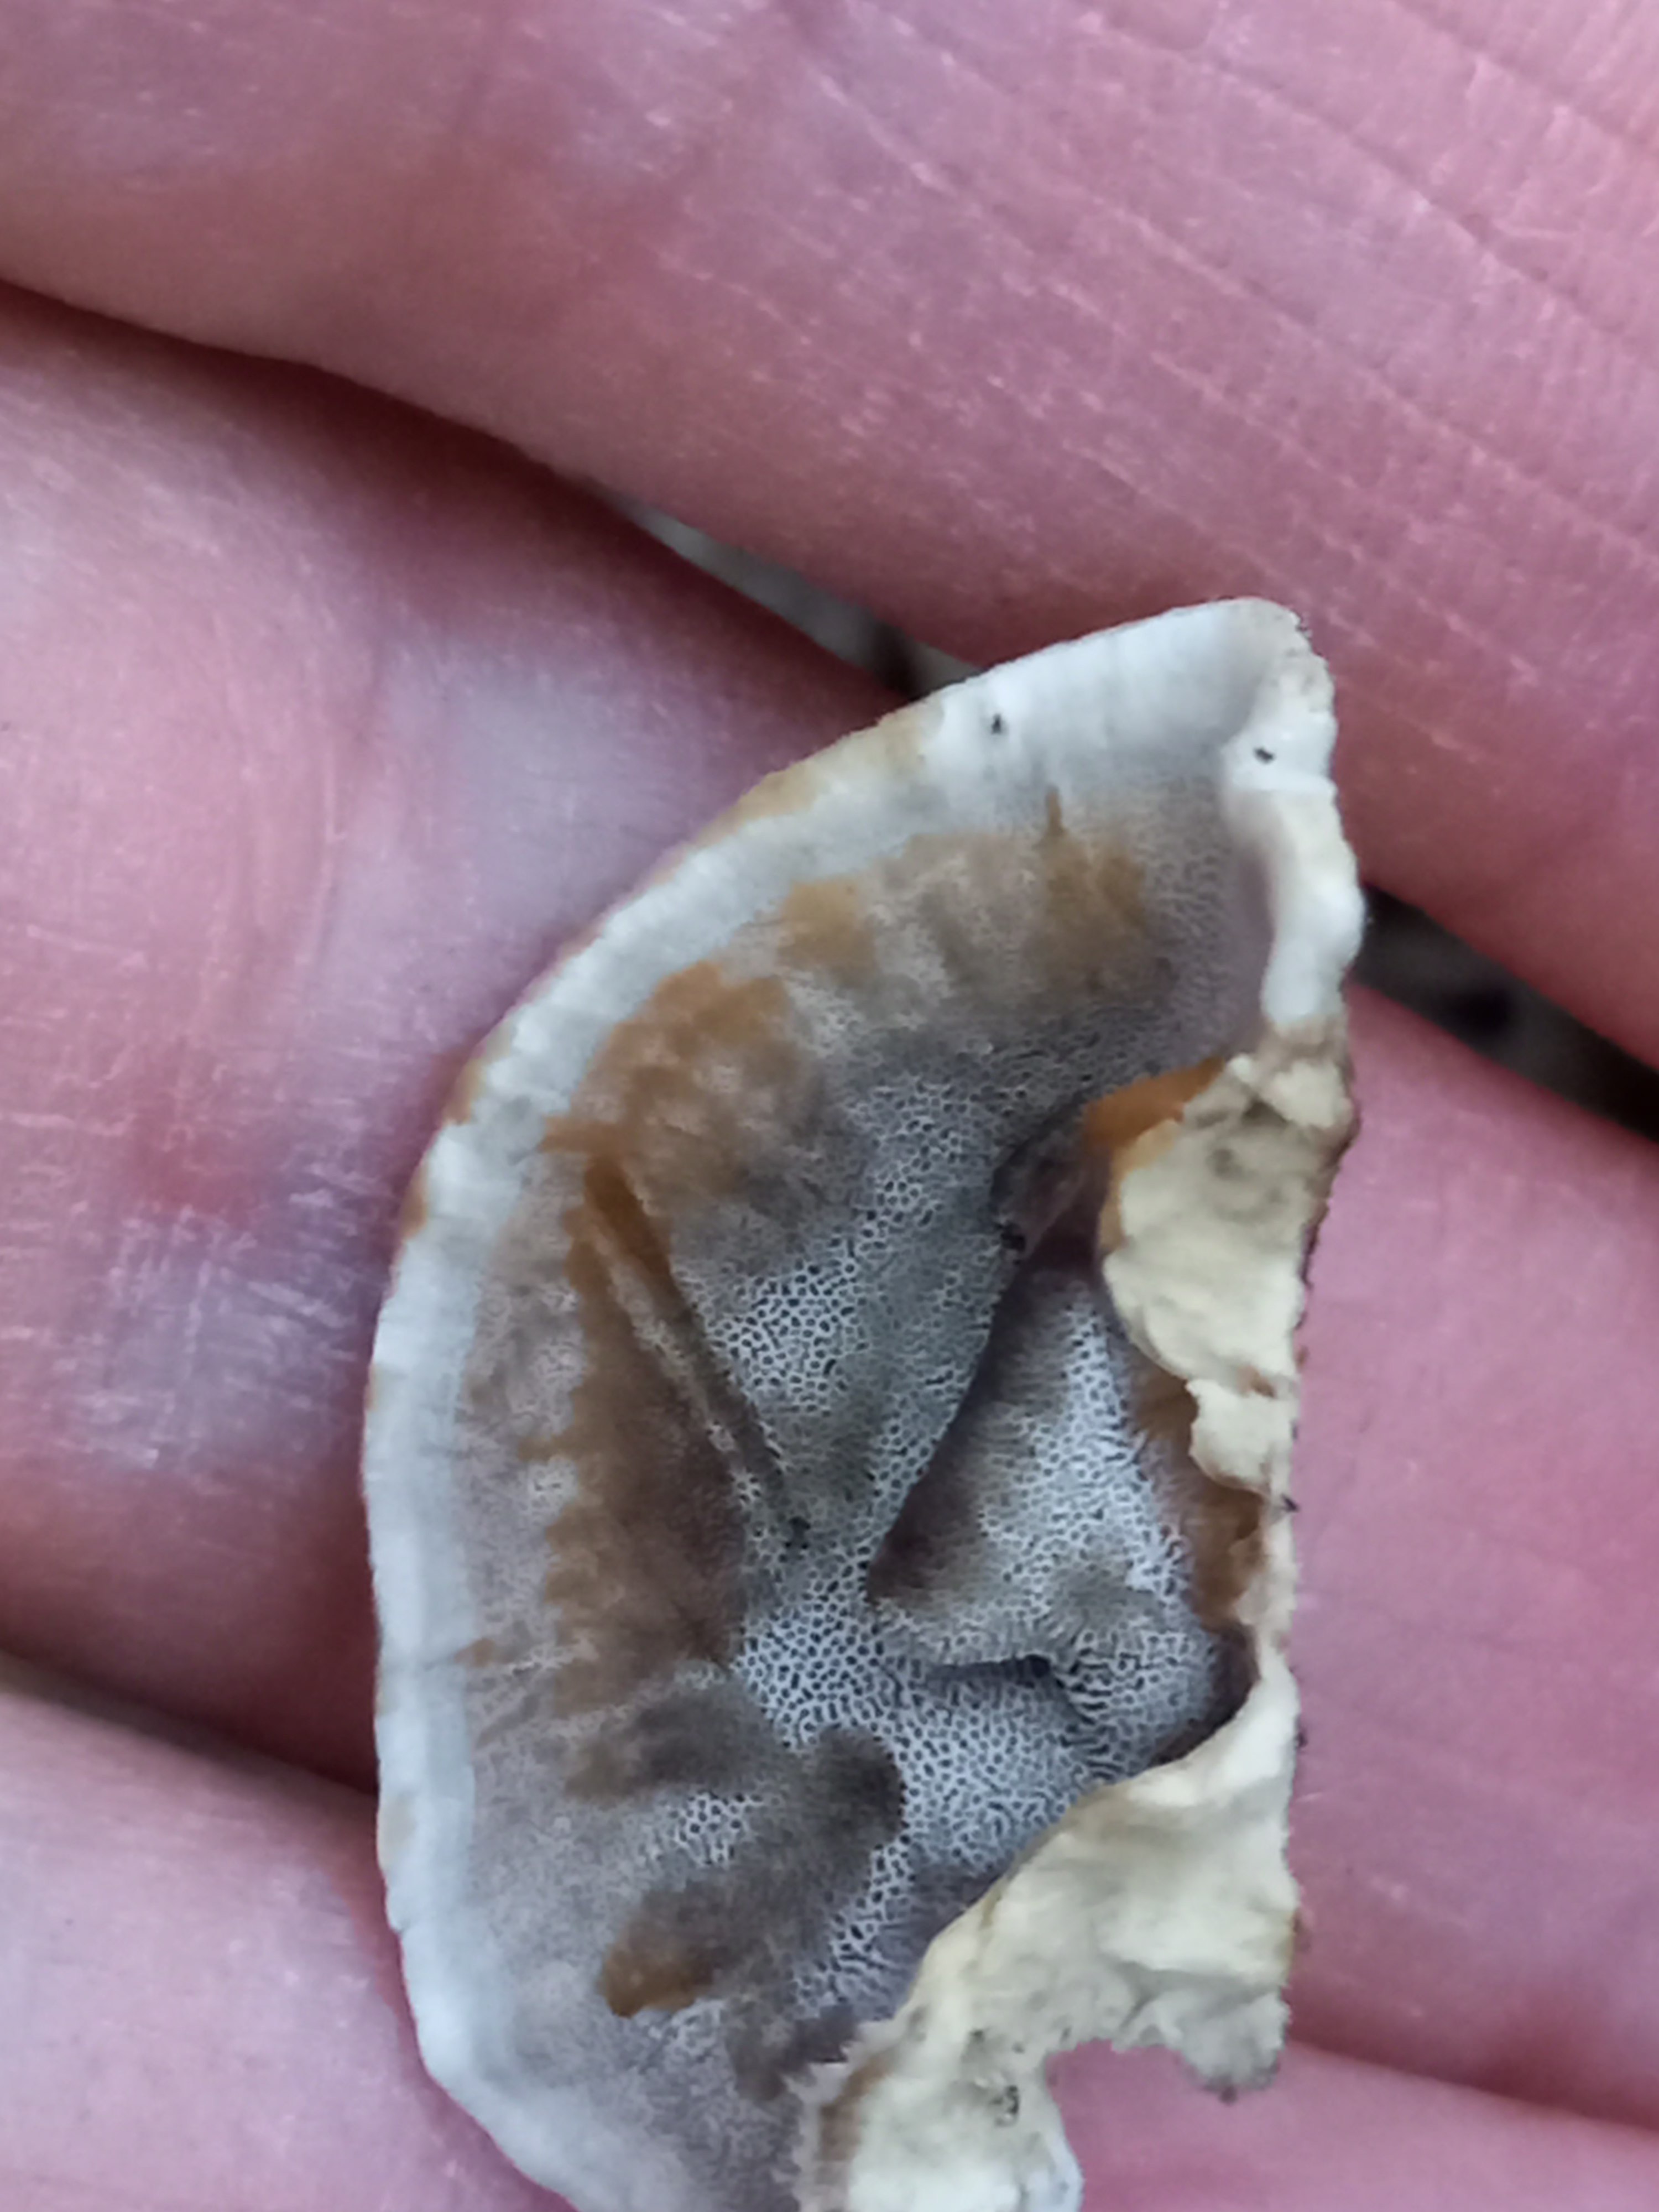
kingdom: Fungi
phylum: Basidiomycota
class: Agaricomycetes
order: Polyporales
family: Phanerochaetaceae
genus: Bjerkandera
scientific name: Bjerkandera adusta
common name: sveden sodporesvamp
